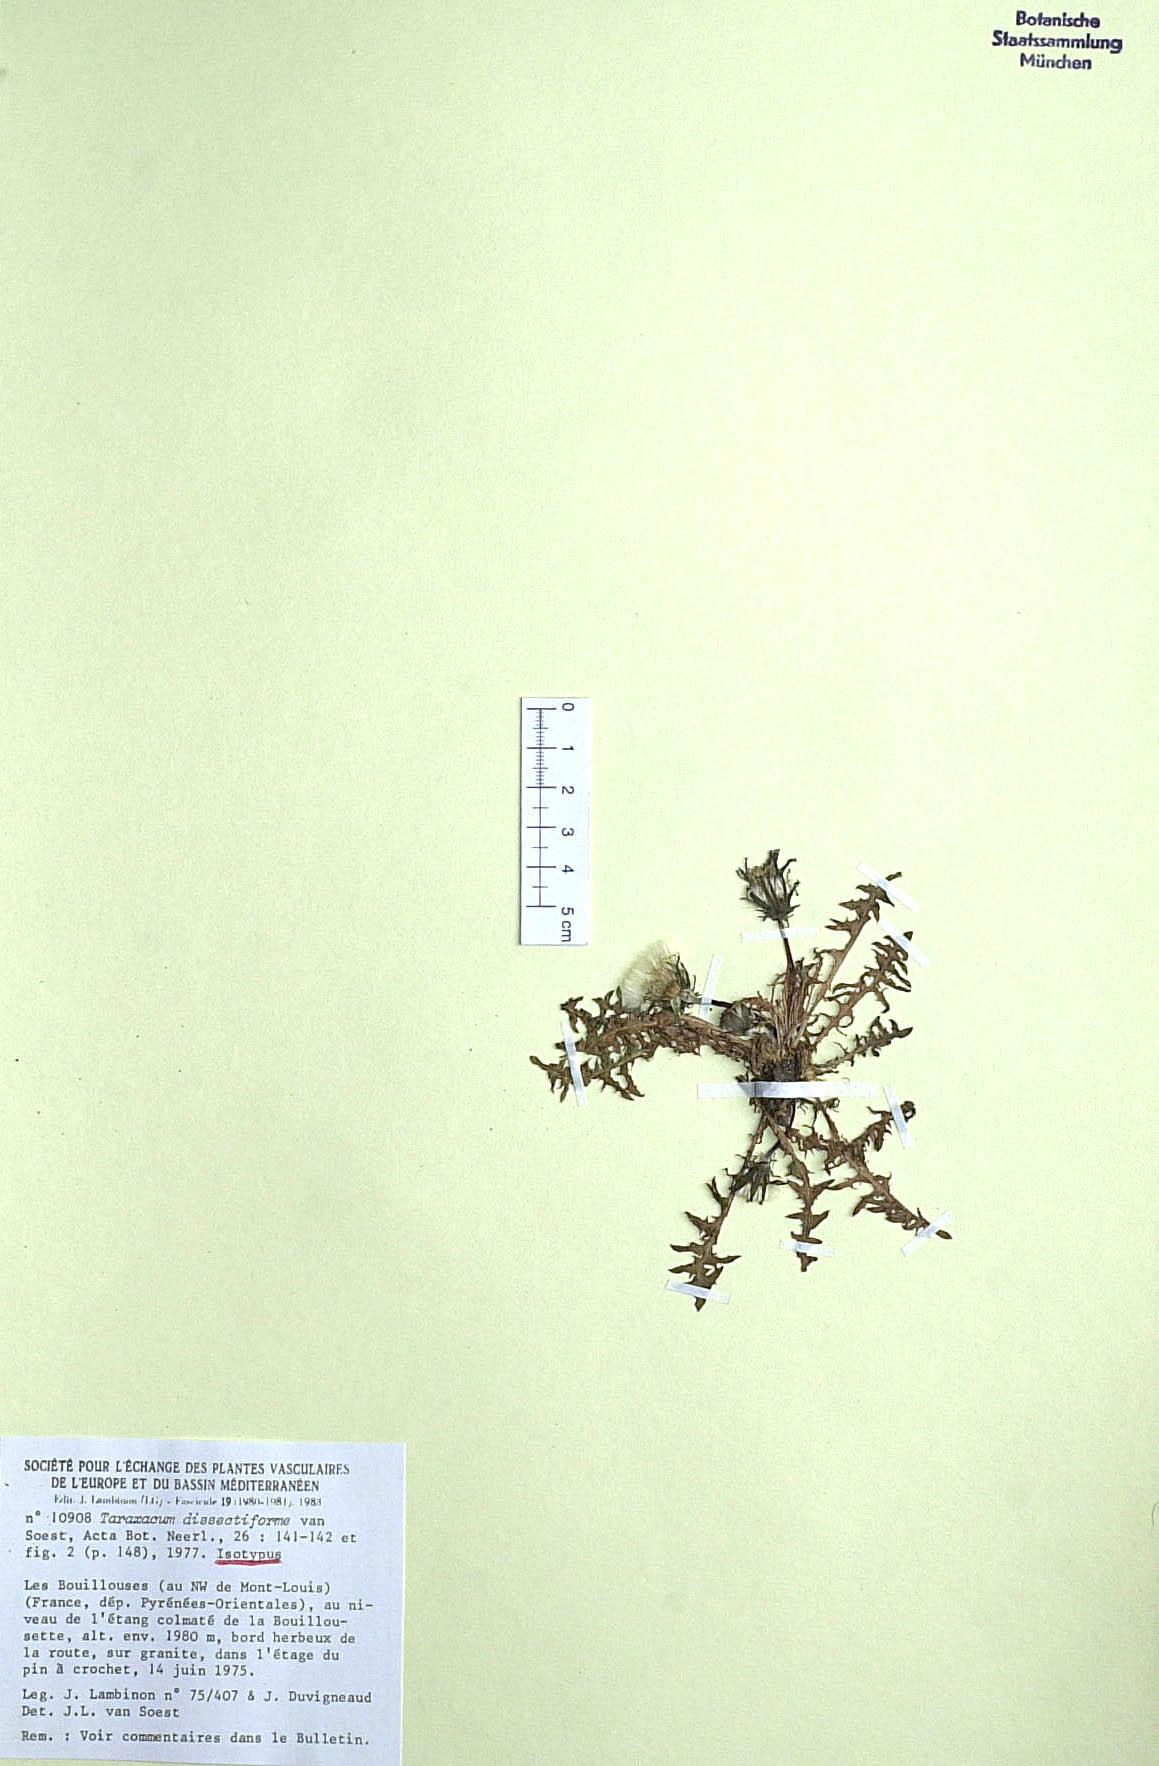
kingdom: Plantae
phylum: Tracheophyta
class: Magnoliopsida
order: Asterales
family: Asteraceae
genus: Taraxacum
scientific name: Taraxacum dissectiforme
